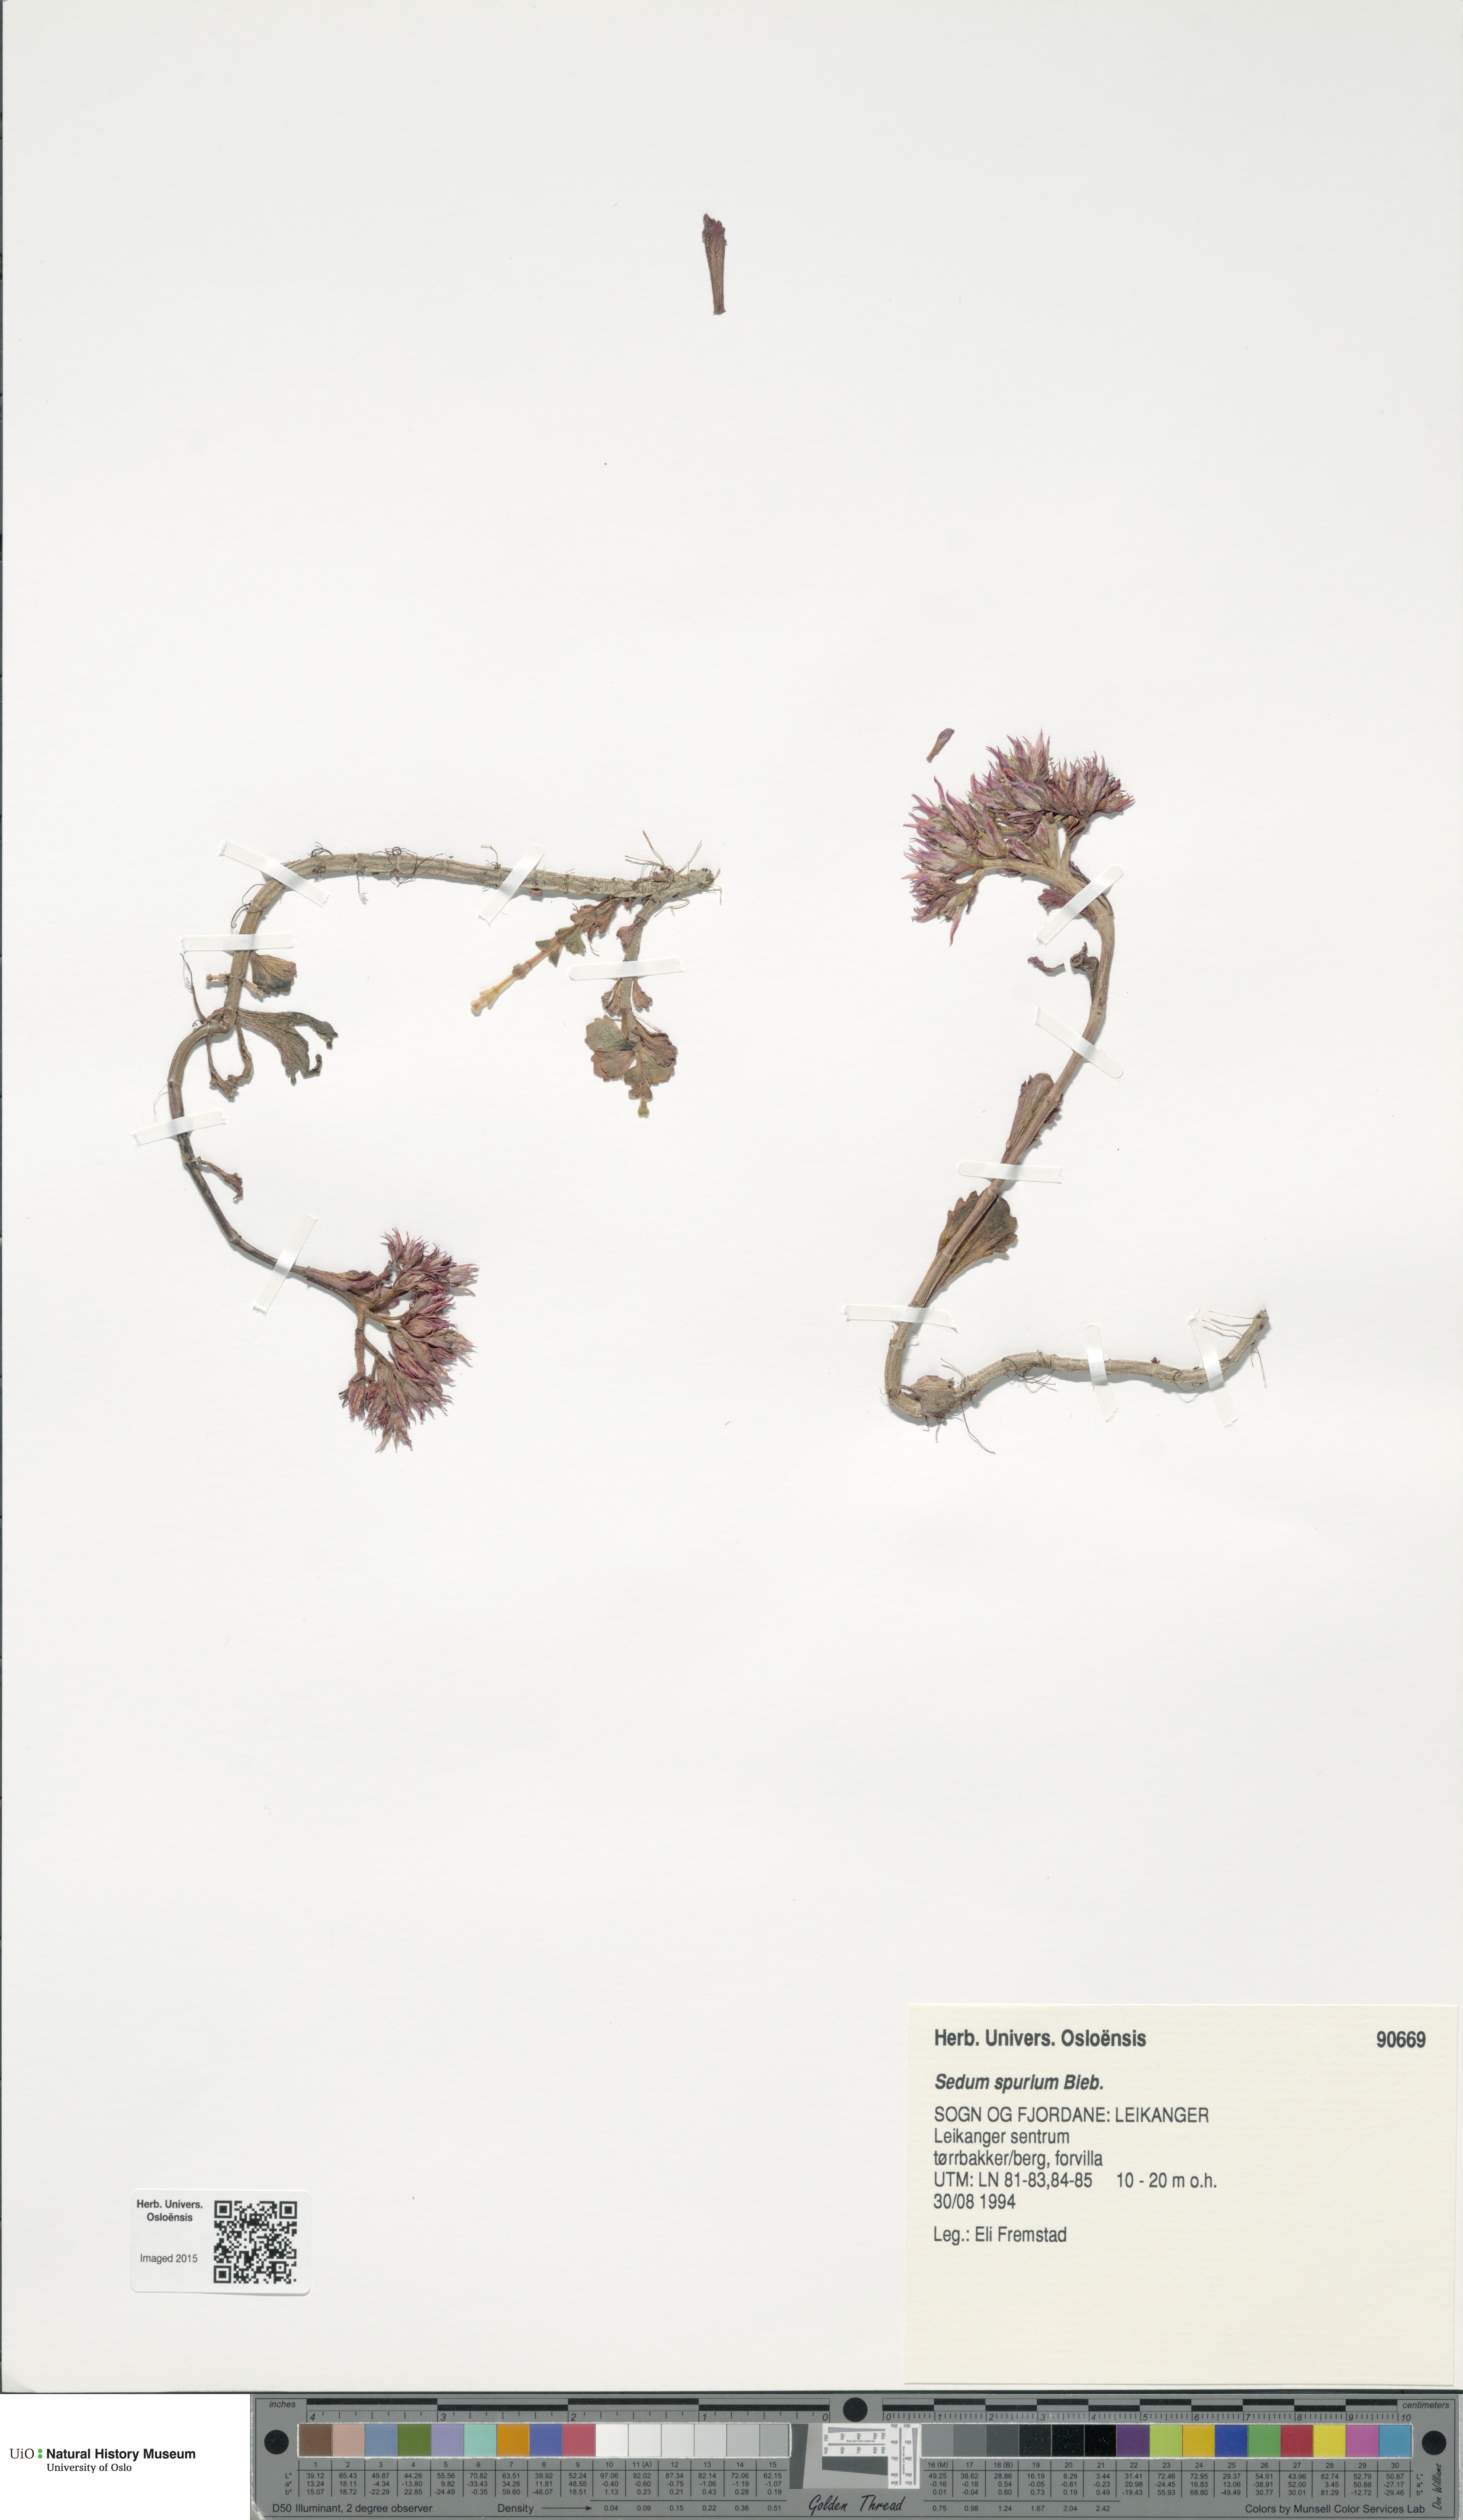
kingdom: Plantae
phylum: Tracheophyta
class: Magnoliopsida
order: Saxifragales
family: Crassulaceae
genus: Phedimus
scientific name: Phedimus spurius
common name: Caucasian stonecrop
